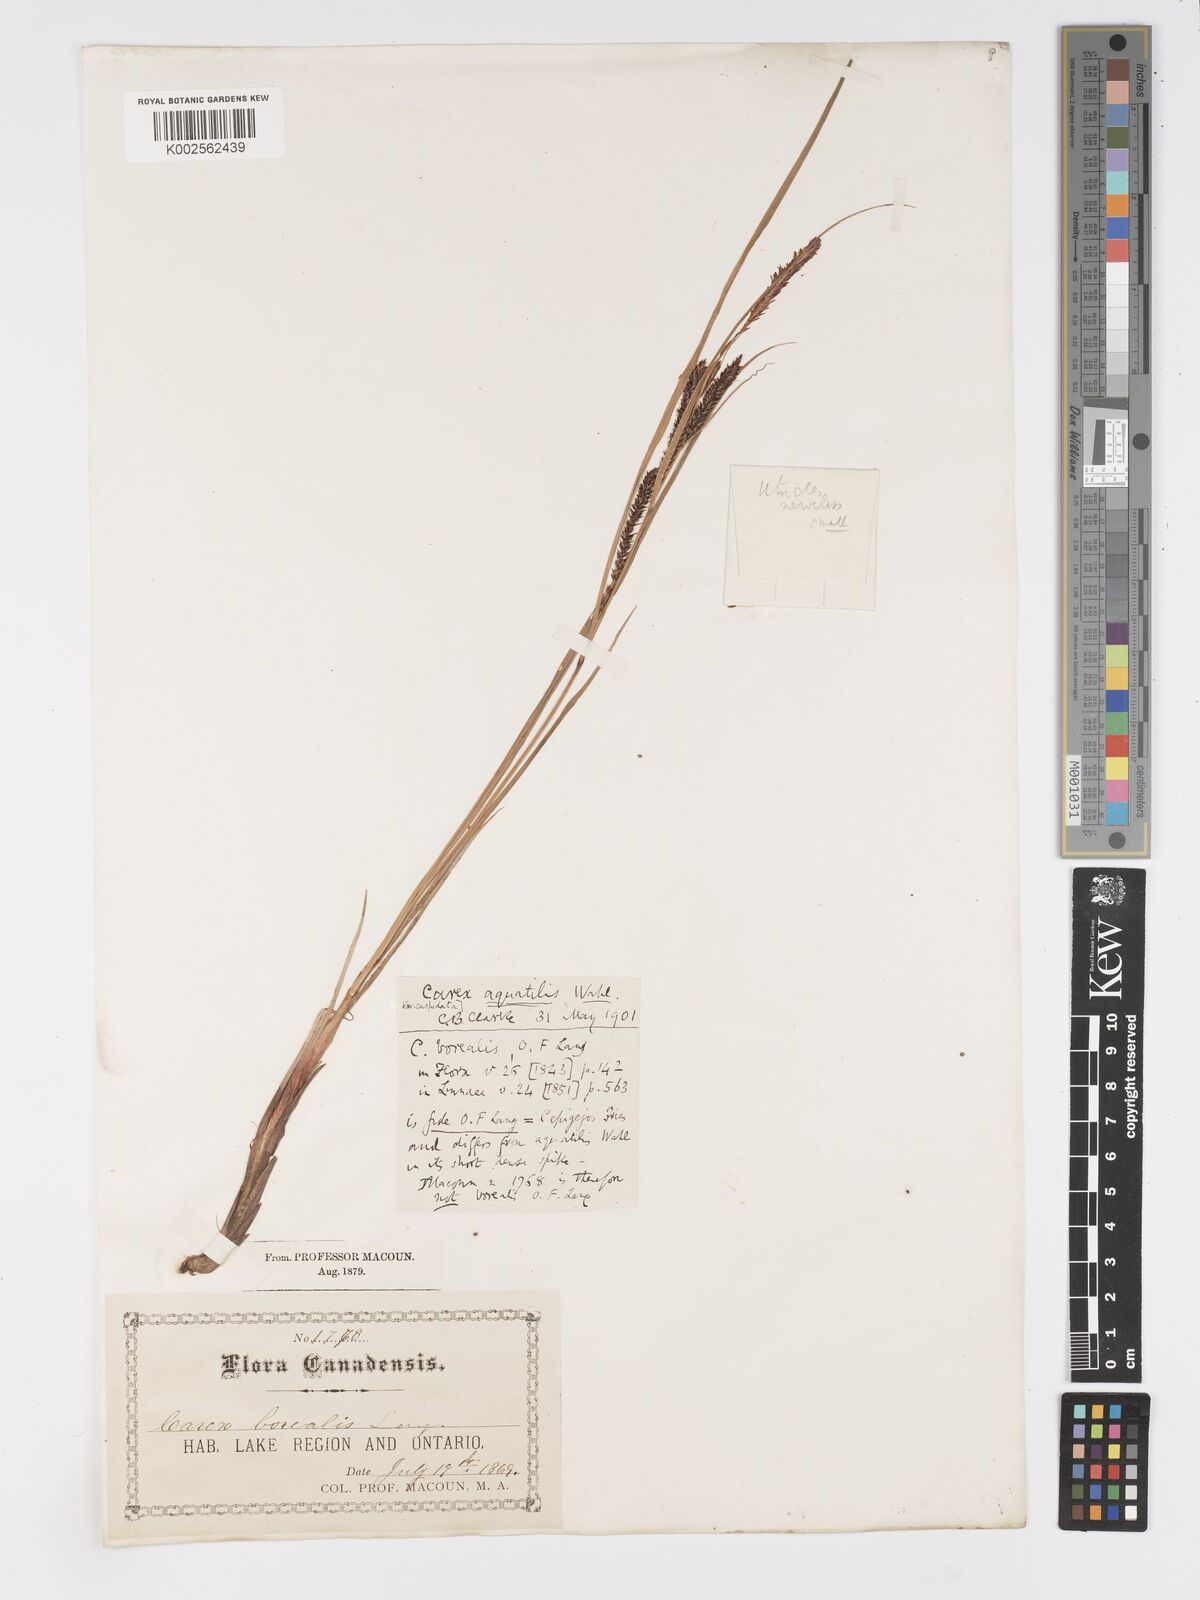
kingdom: Plantae
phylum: Tracheophyta
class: Liliopsida
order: Poales
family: Cyperaceae
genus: Carex
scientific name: Carex
